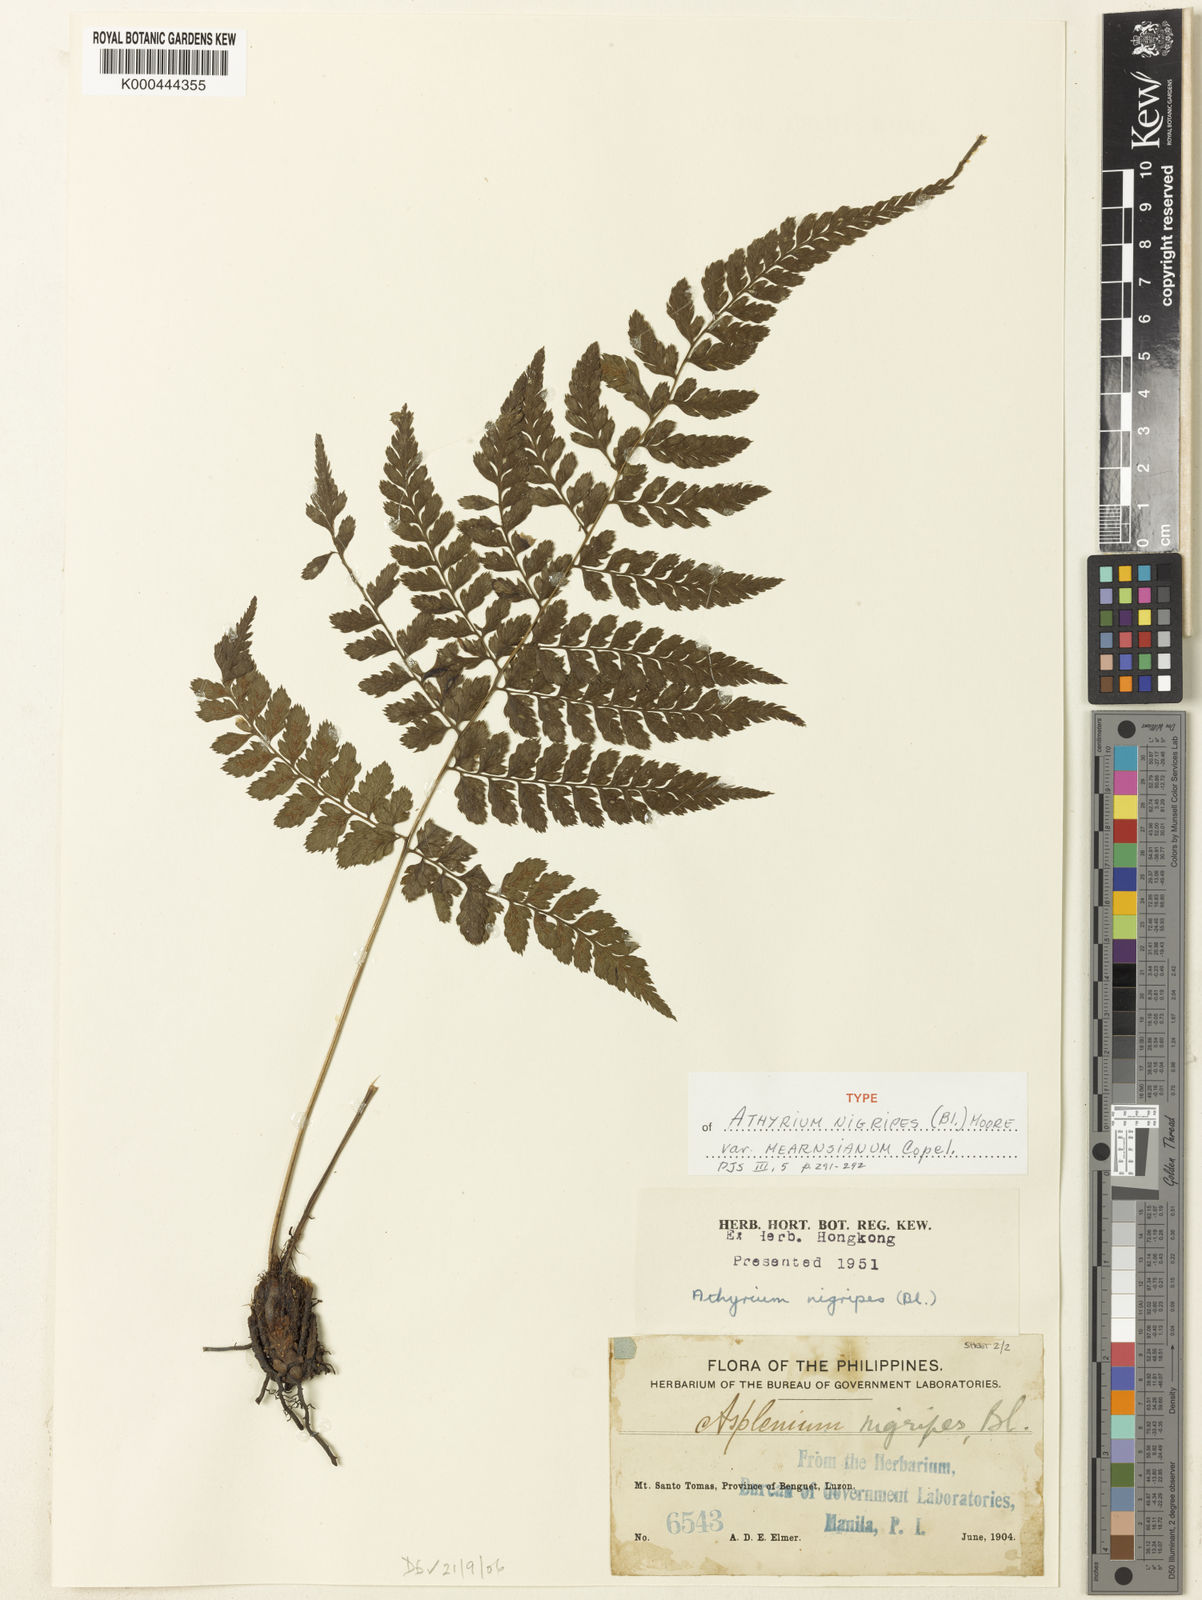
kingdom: Plantae
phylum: Tracheophyta
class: Polypodiopsida
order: Polypodiales
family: Athyriaceae
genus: Athyrium
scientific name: Athyrium nitidulum
